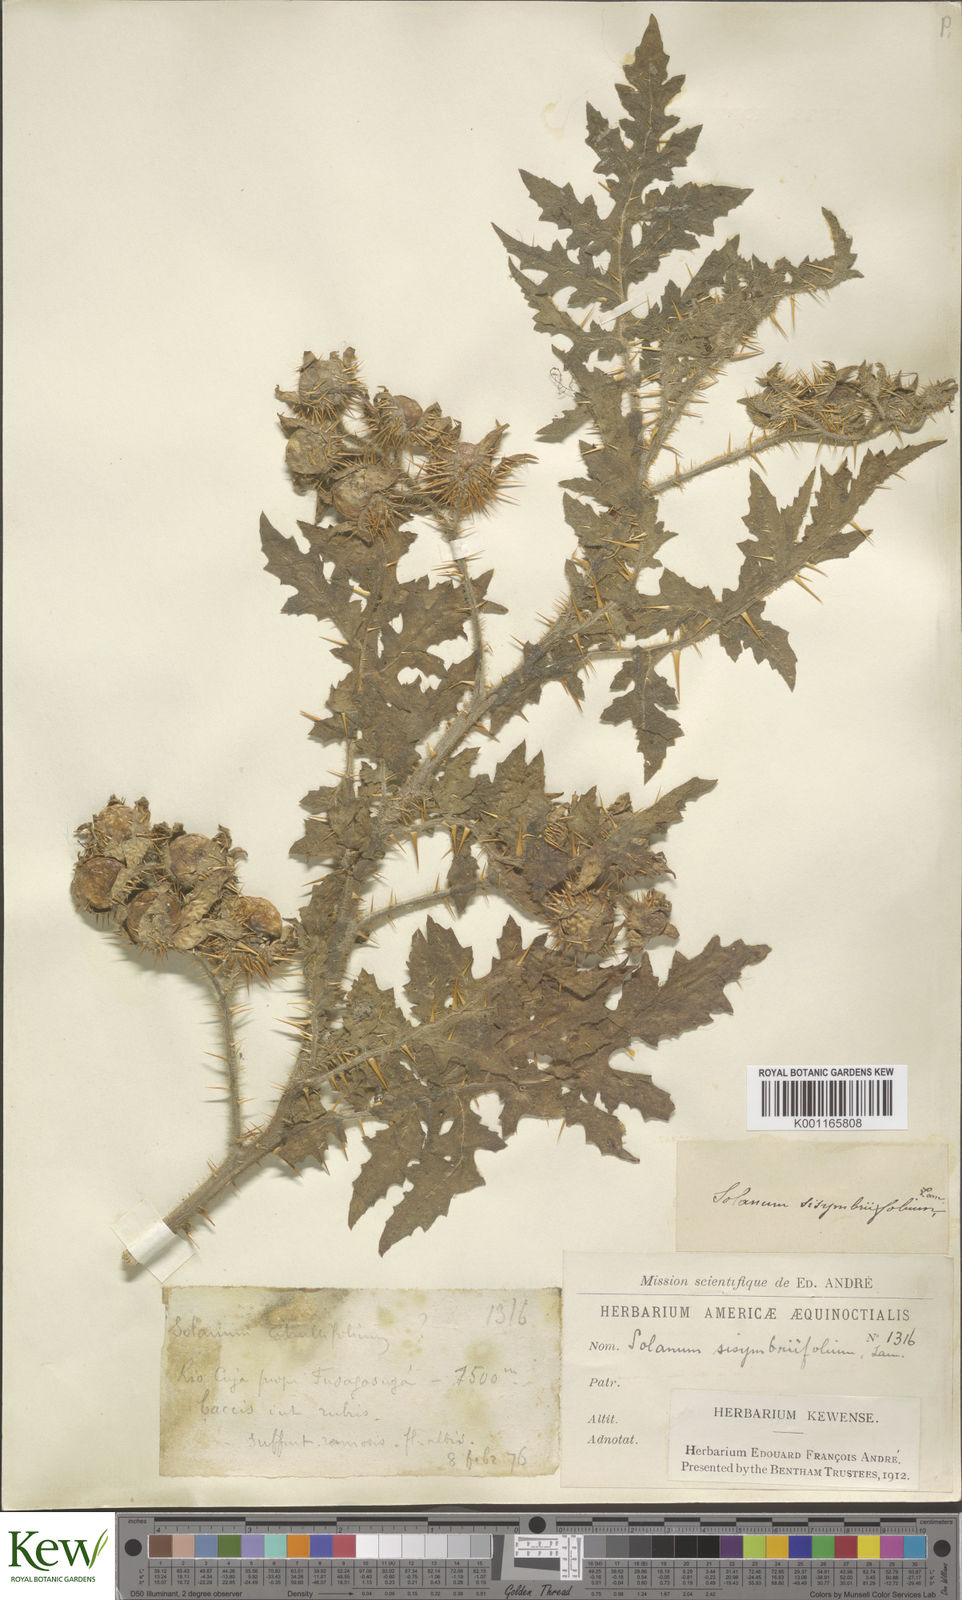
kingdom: Plantae
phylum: Tracheophyta
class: Magnoliopsida
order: Solanales
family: Solanaceae
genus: Solanum
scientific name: Solanum sisymbriifolium
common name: Red buffalo-bur
